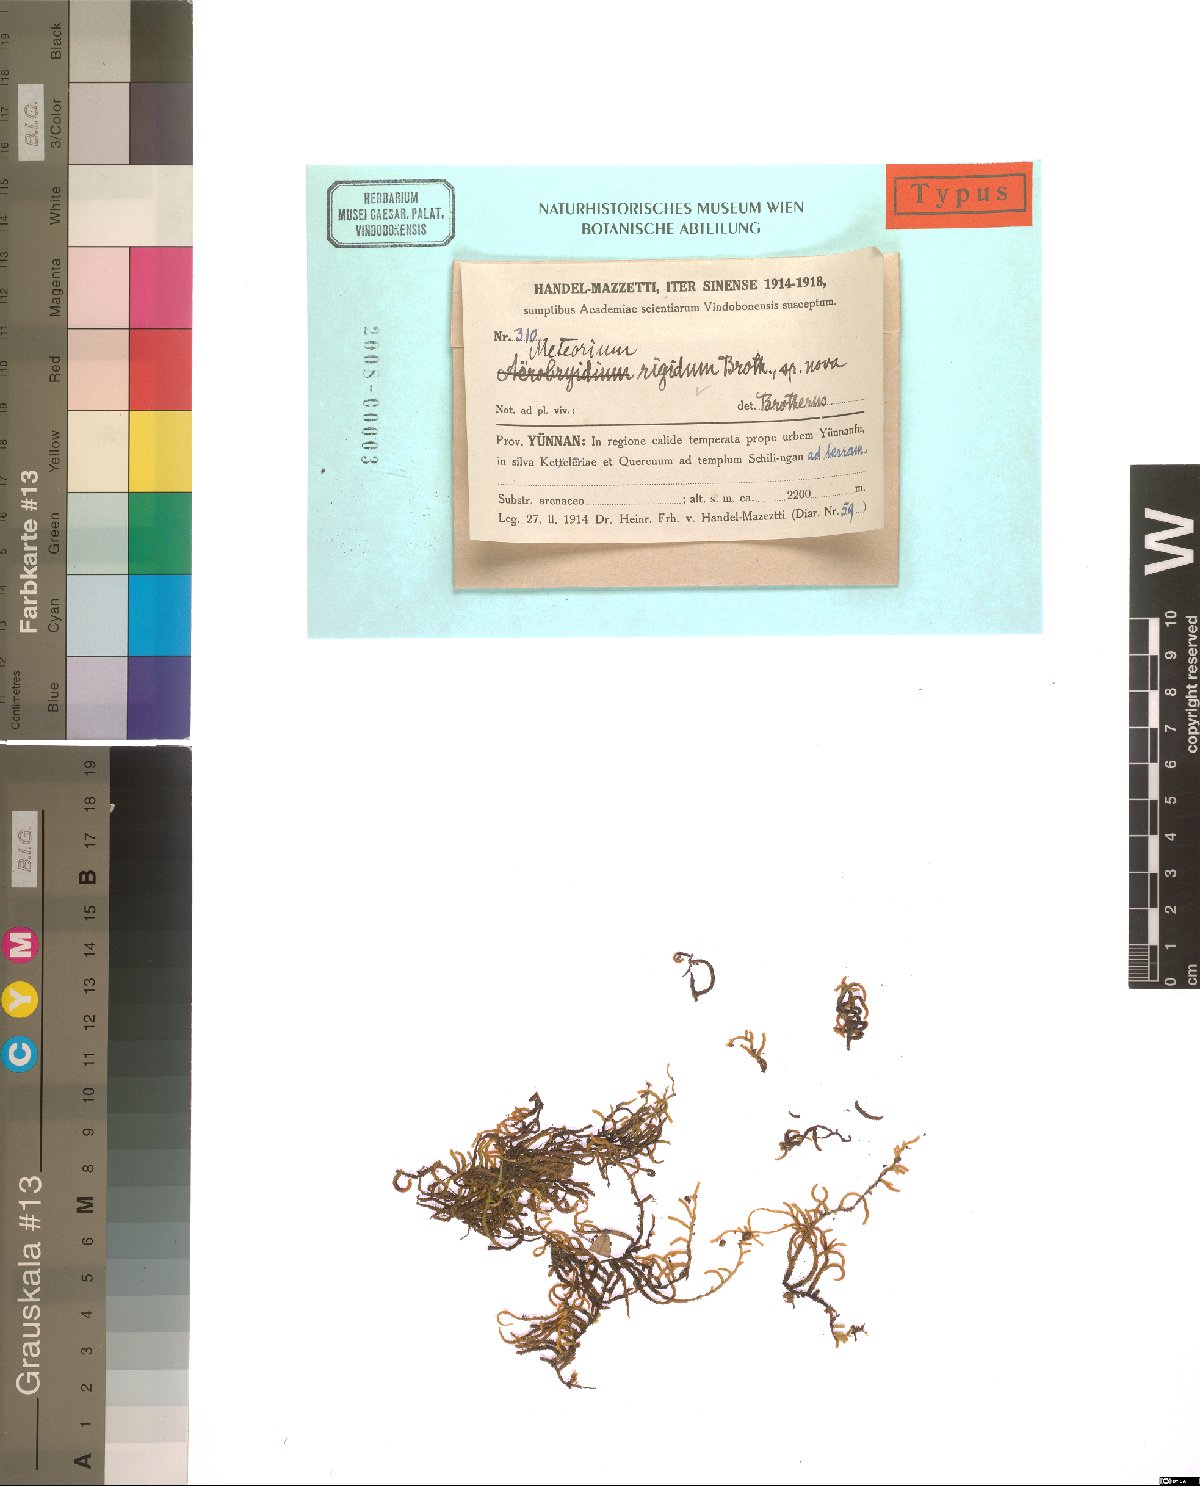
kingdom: Plantae
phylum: Bryophyta
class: Bryopsida
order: Hypnales
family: Meteoriaceae
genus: Meteorium
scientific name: Meteorium buchananii
